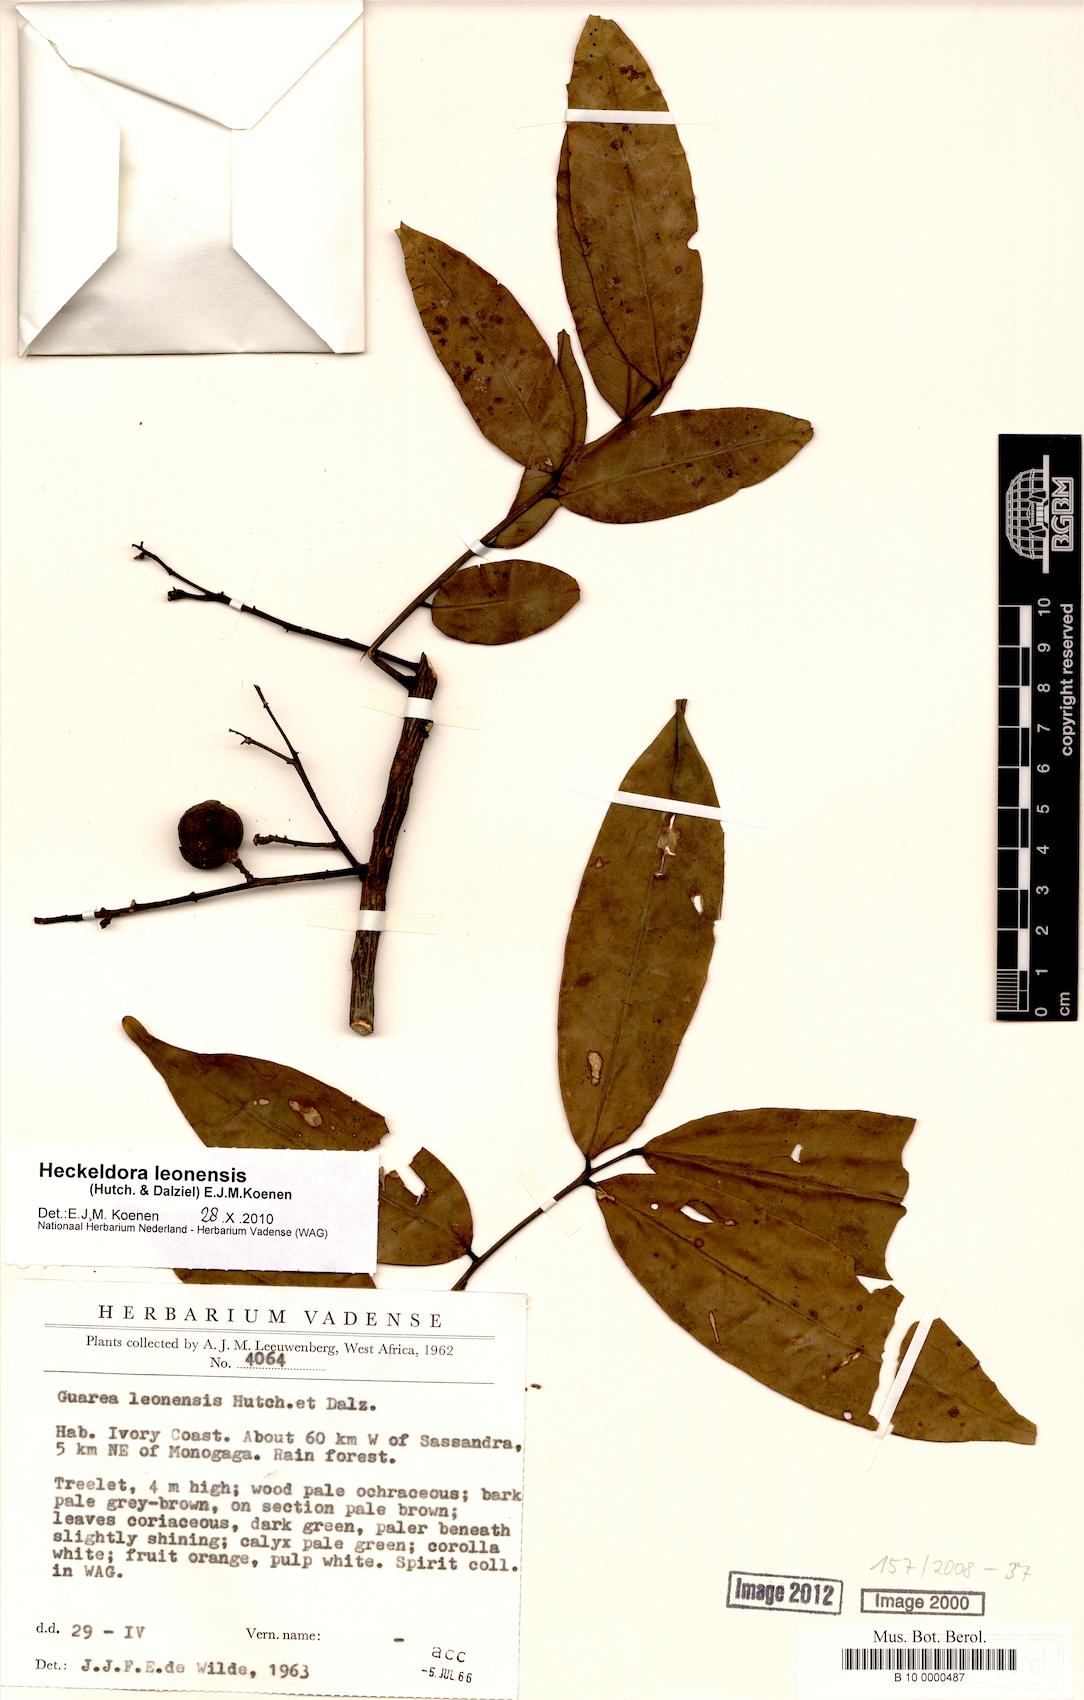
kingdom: Plantae
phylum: Tracheophyta
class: Magnoliopsida
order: Sapindales
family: Meliaceae
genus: Heckeldora
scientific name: Heckeldora leonensis
